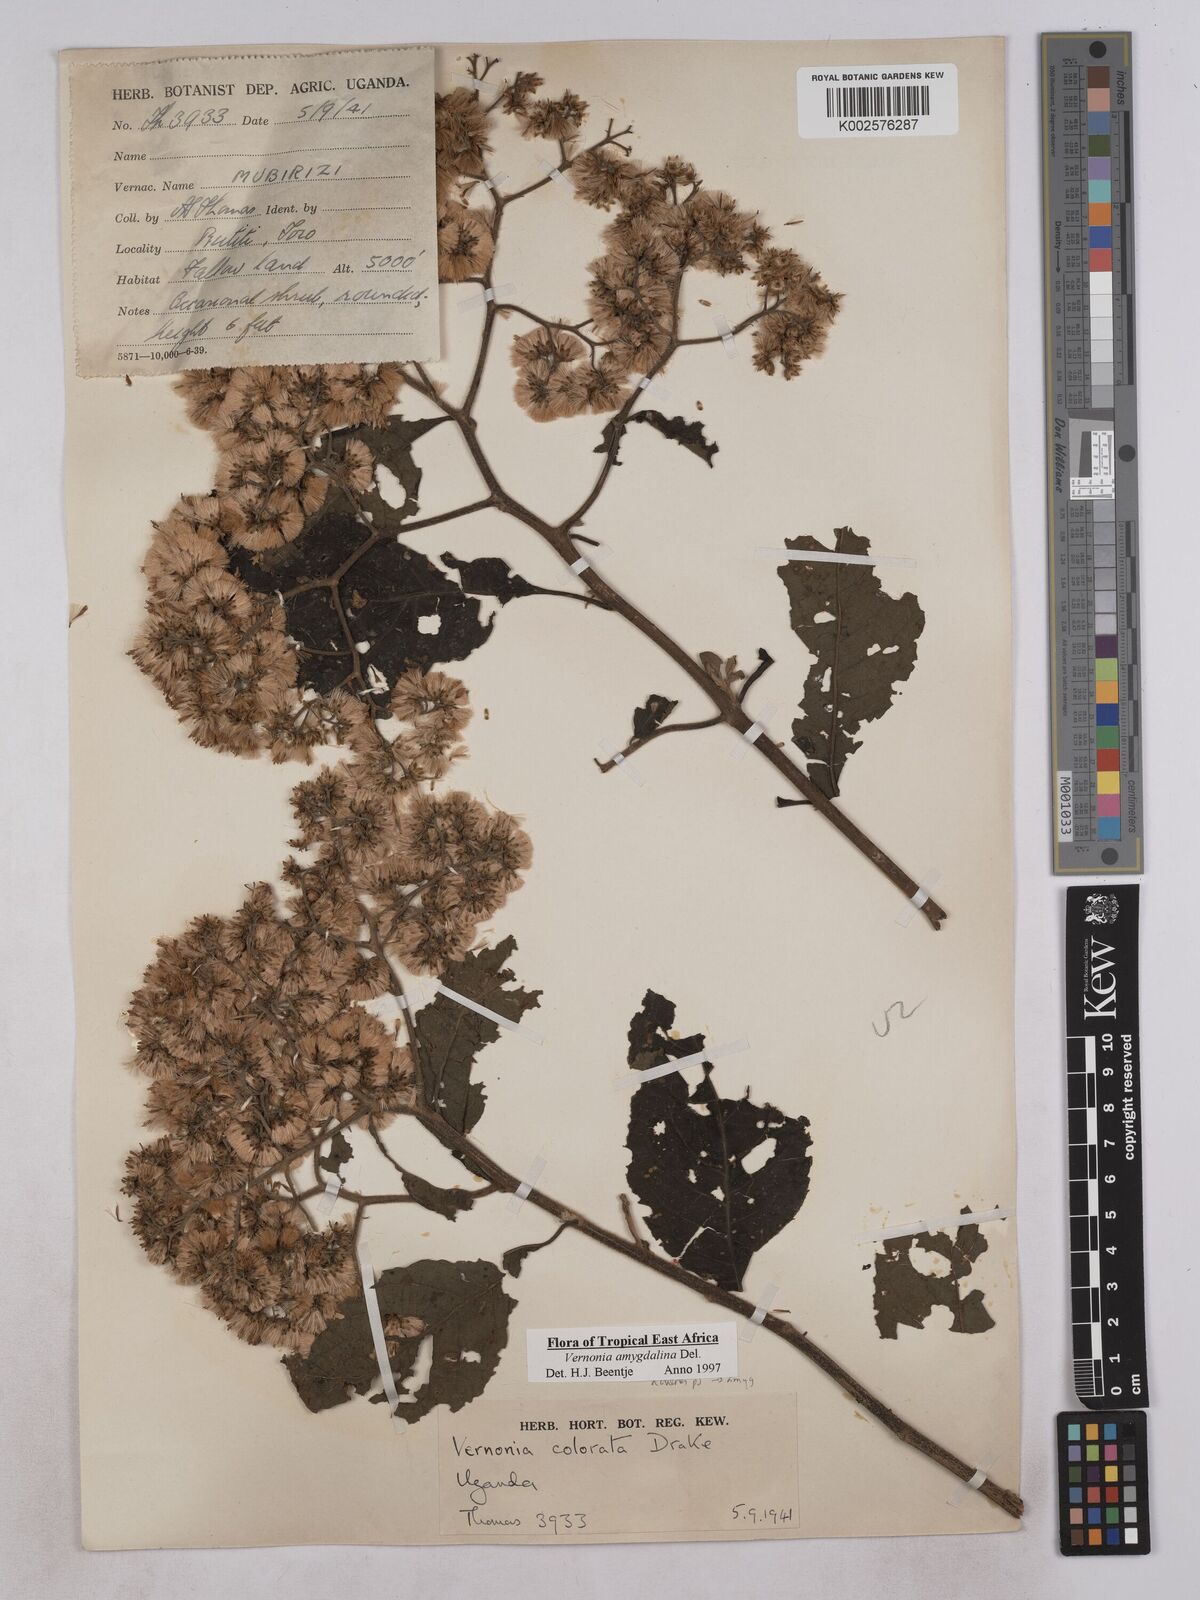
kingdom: Plantae
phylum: Tracheophyta
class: Magnoliopsida
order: Asterales
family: Asteraceae
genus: Gymnanthemum
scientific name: Gymnanthemum amygdalinum
